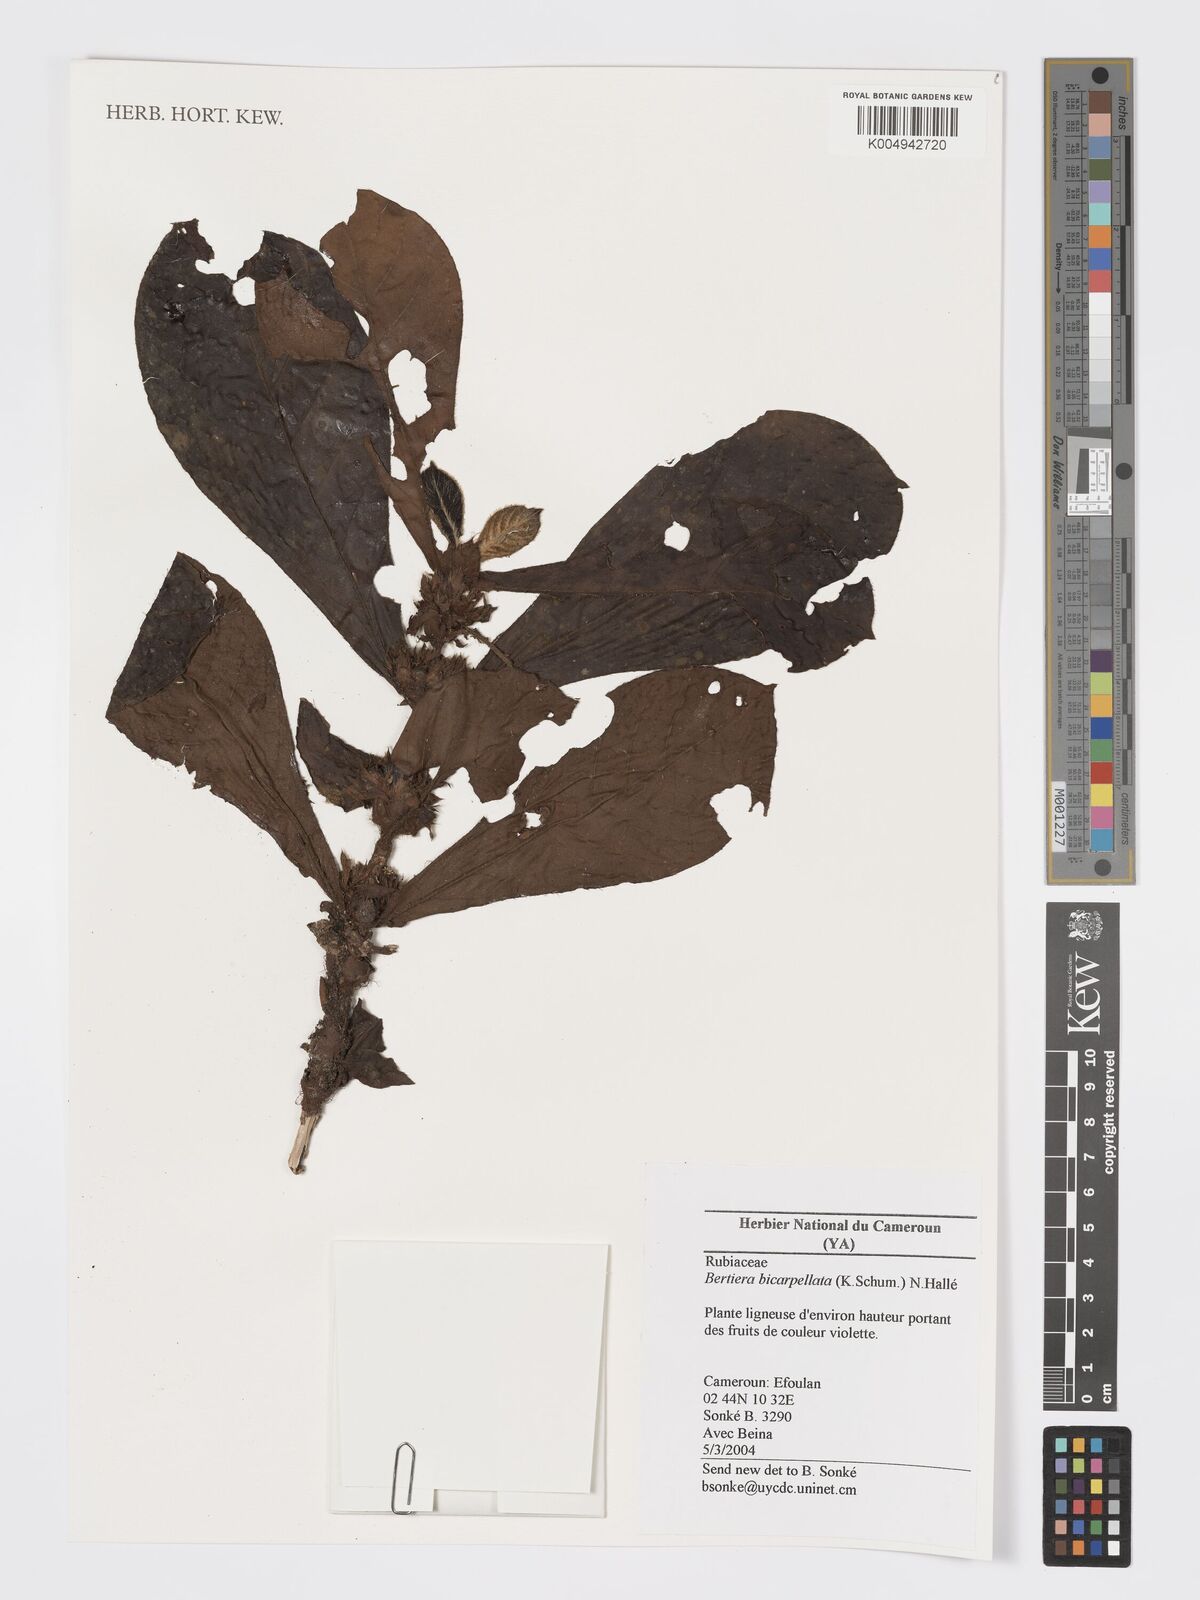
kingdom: Plantae
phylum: Tracheophyta
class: Magnoliopsida
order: Gentianales
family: Rubiaceae
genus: Bertiera
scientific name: Bertiera bicarpellata
